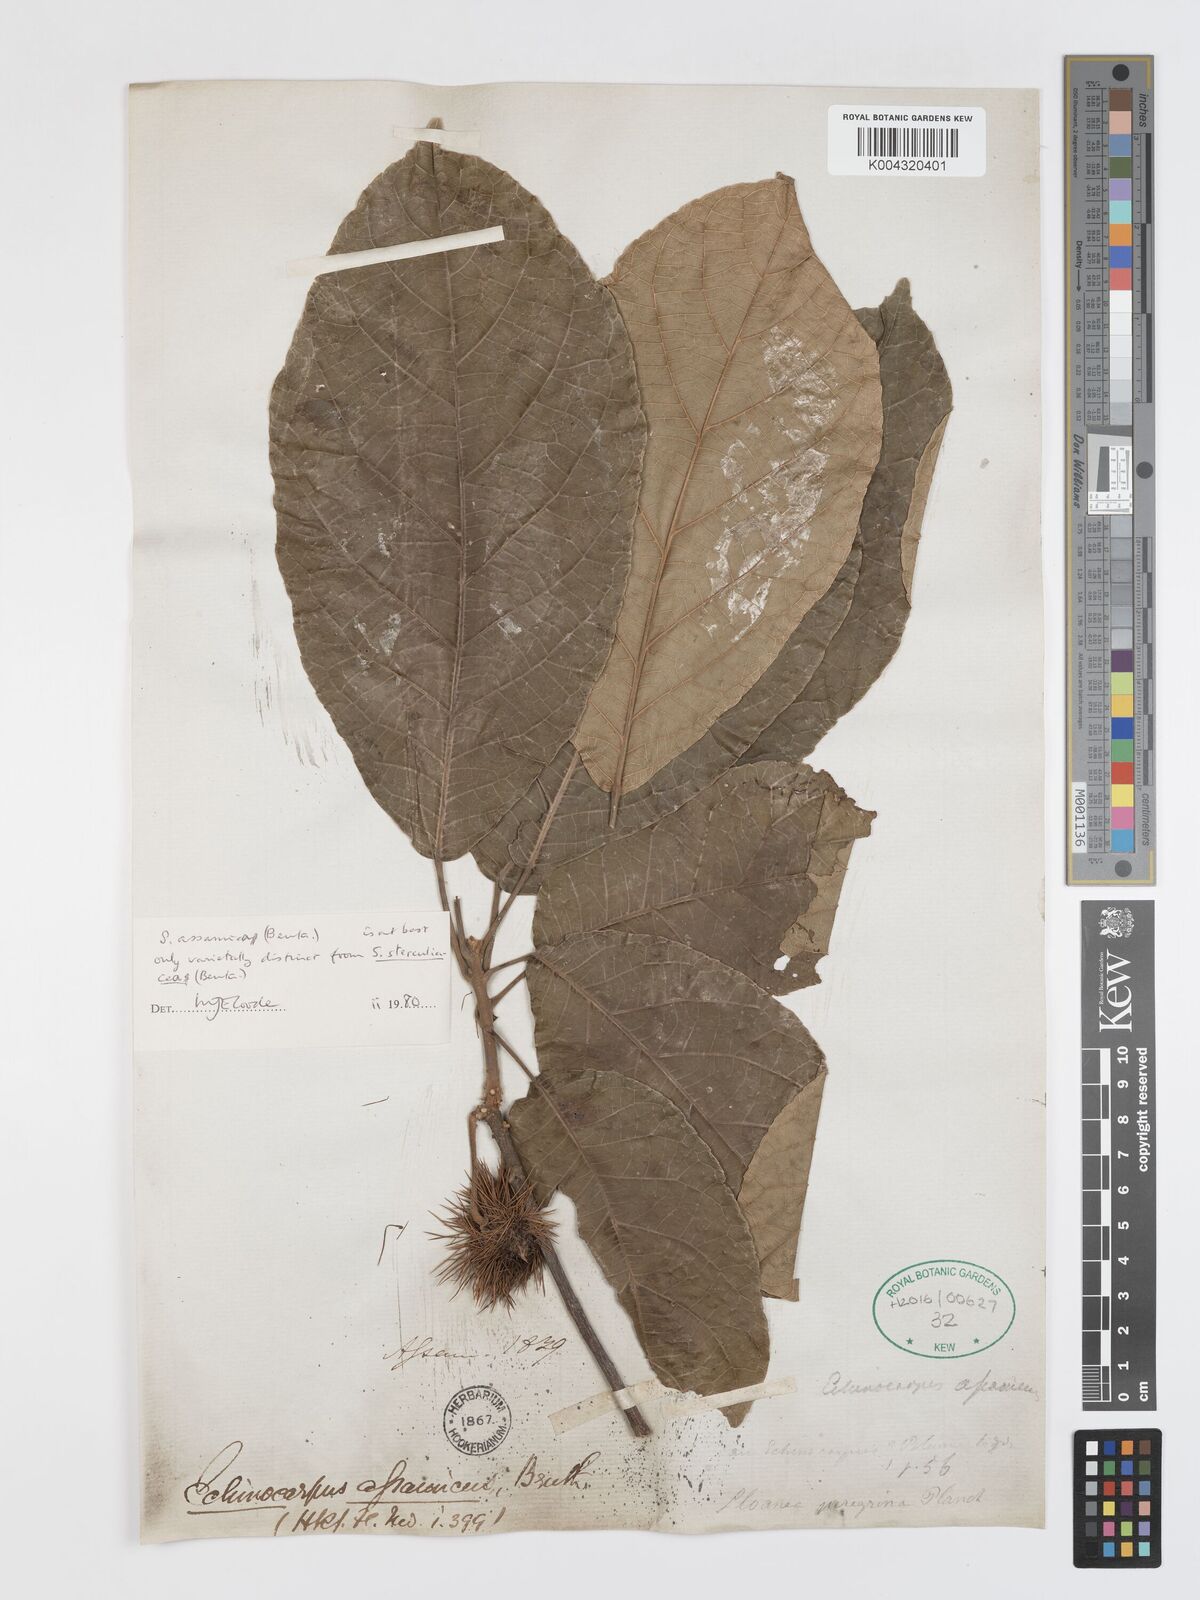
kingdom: Plantae
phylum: Tracheophyta
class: Magnoliopsida
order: Oxalidales
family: Elaeocarpaceae
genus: Sloanea
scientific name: Sloanea sterculiacea
